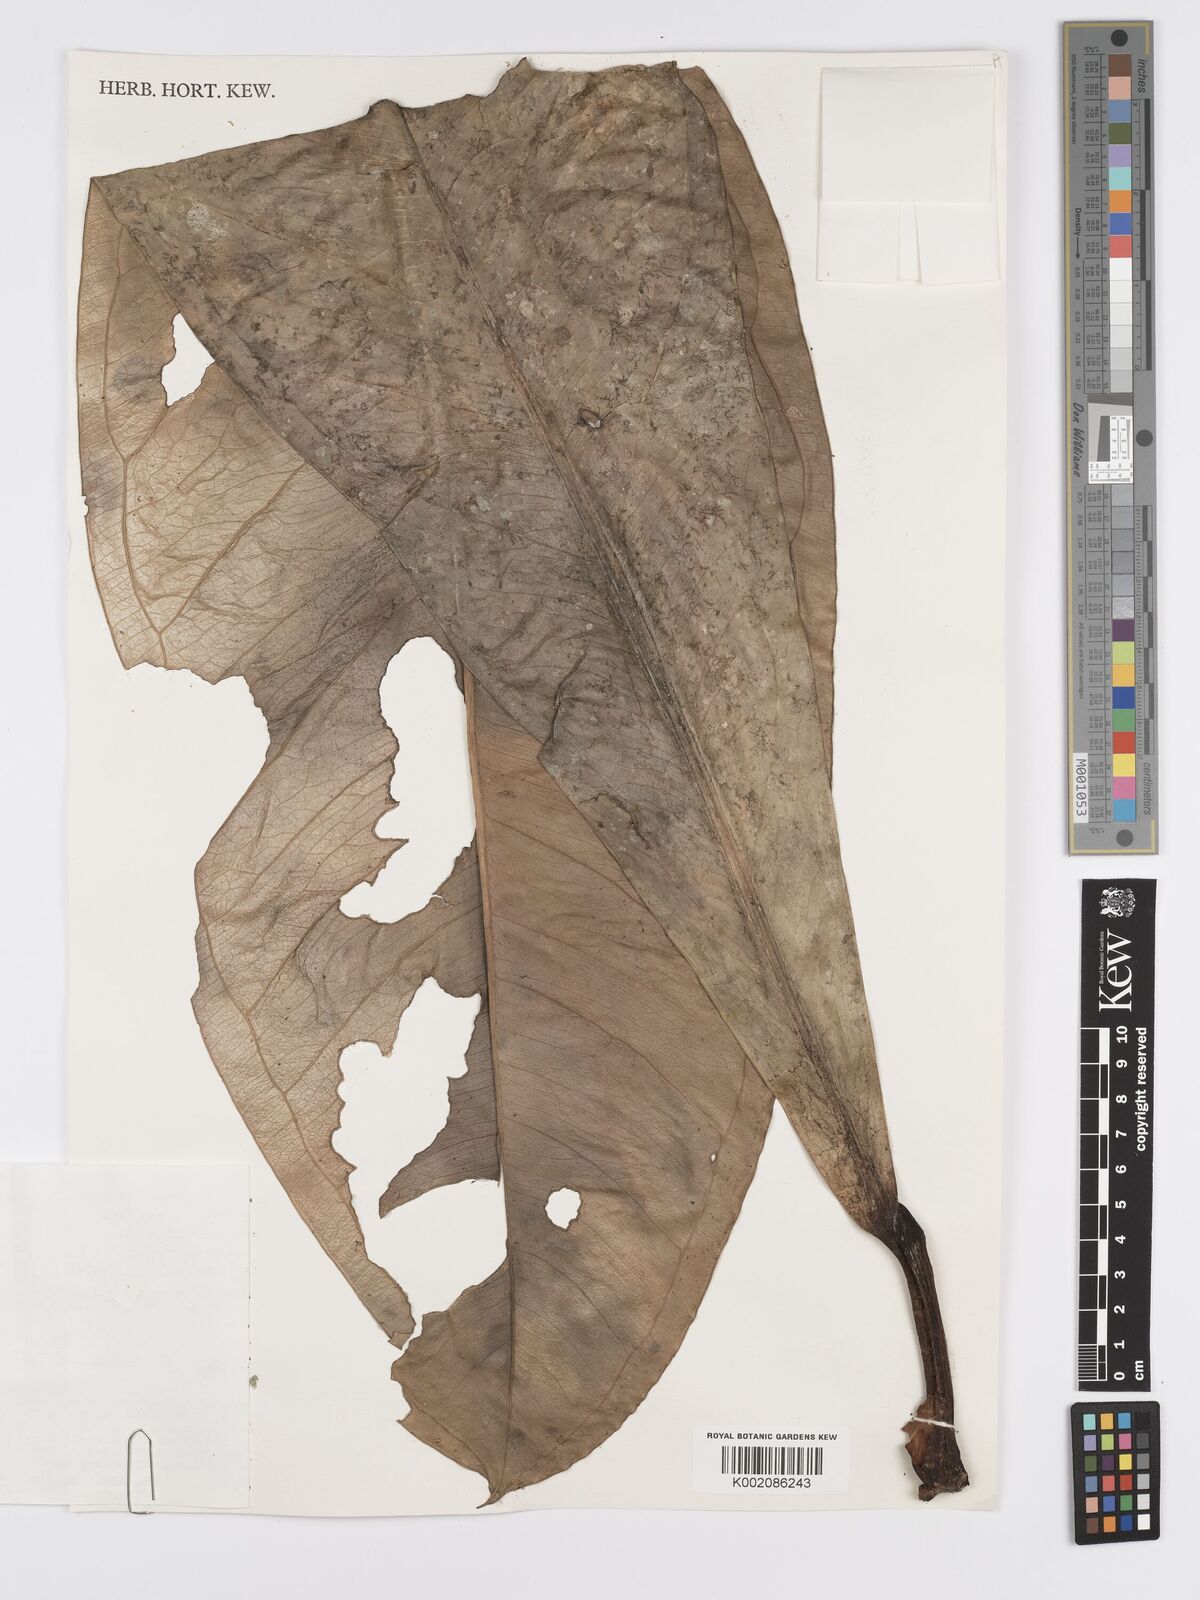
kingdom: Plantae
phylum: Tracheophyta
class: Liliopsida
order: Alismatales
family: Araceae
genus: Anthurium
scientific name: Anthurium hacumense
